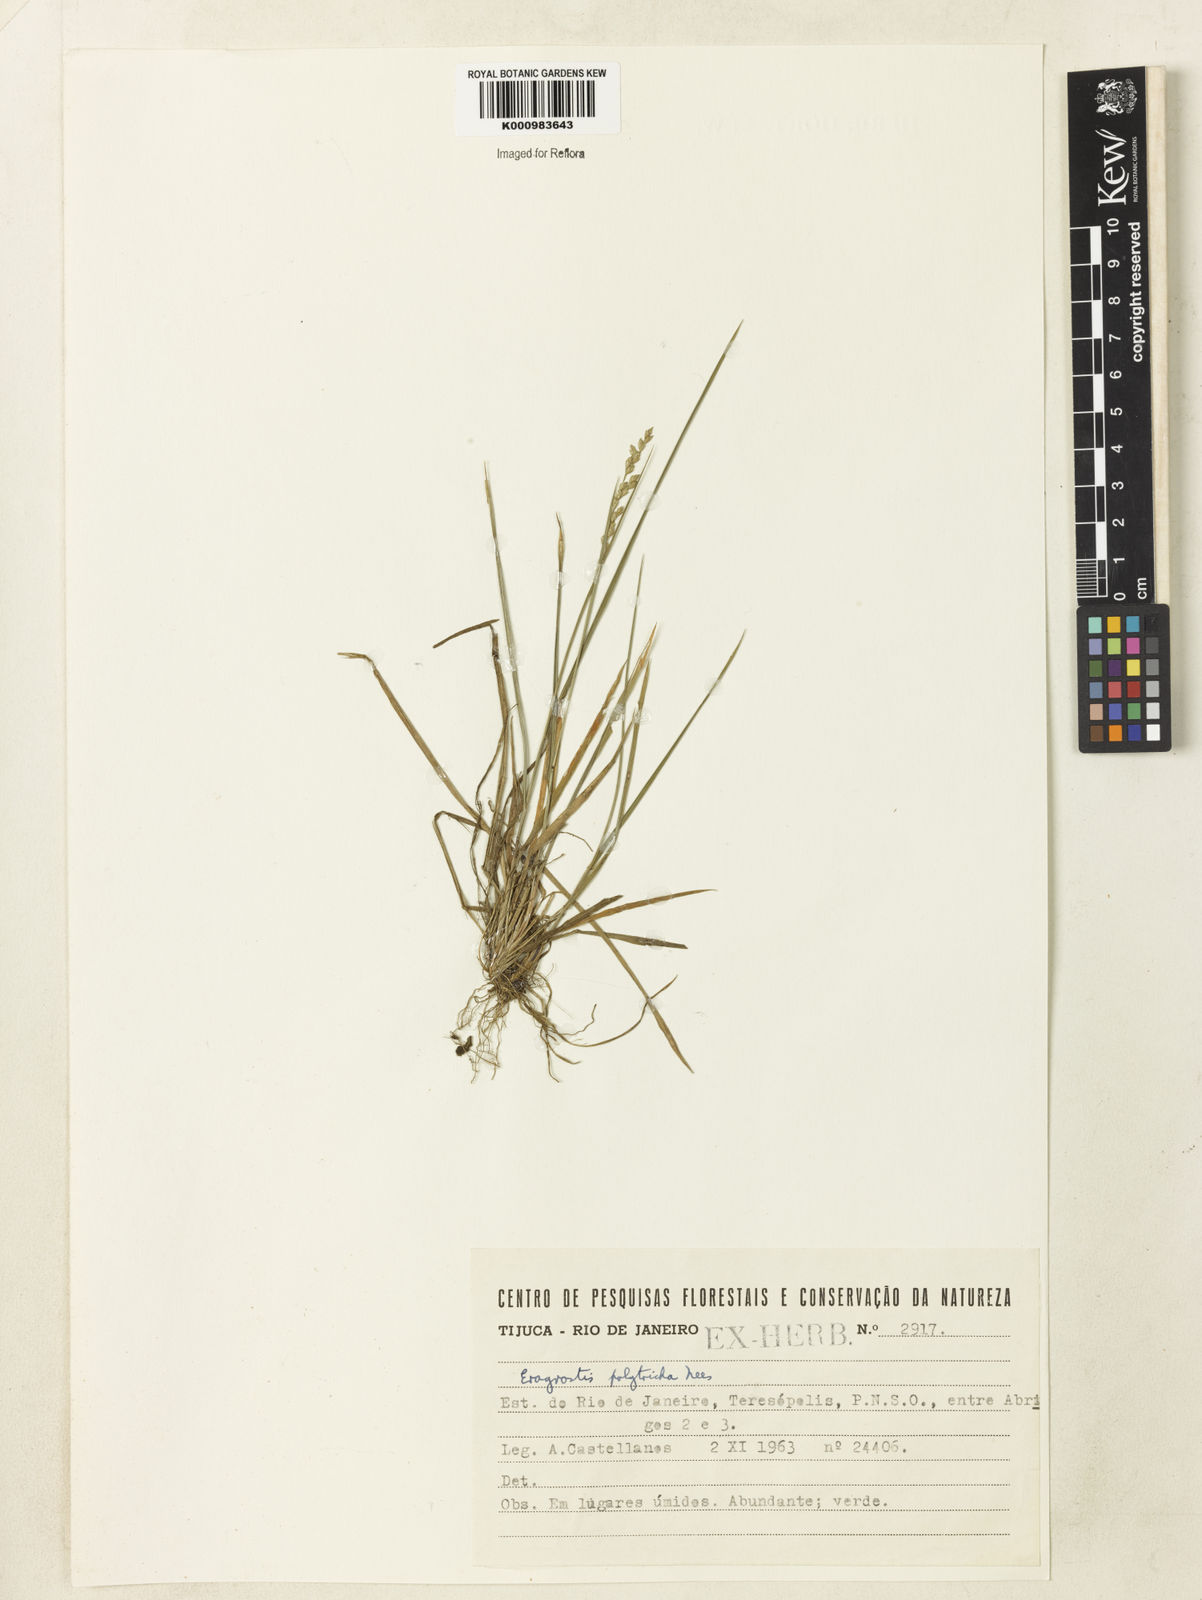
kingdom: Plantae
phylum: Tracheophyta
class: Liliopsida
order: Poales
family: Poaceae
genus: Eragrostis
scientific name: Eragrostis polytricha
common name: Hairy-sheath love grass
